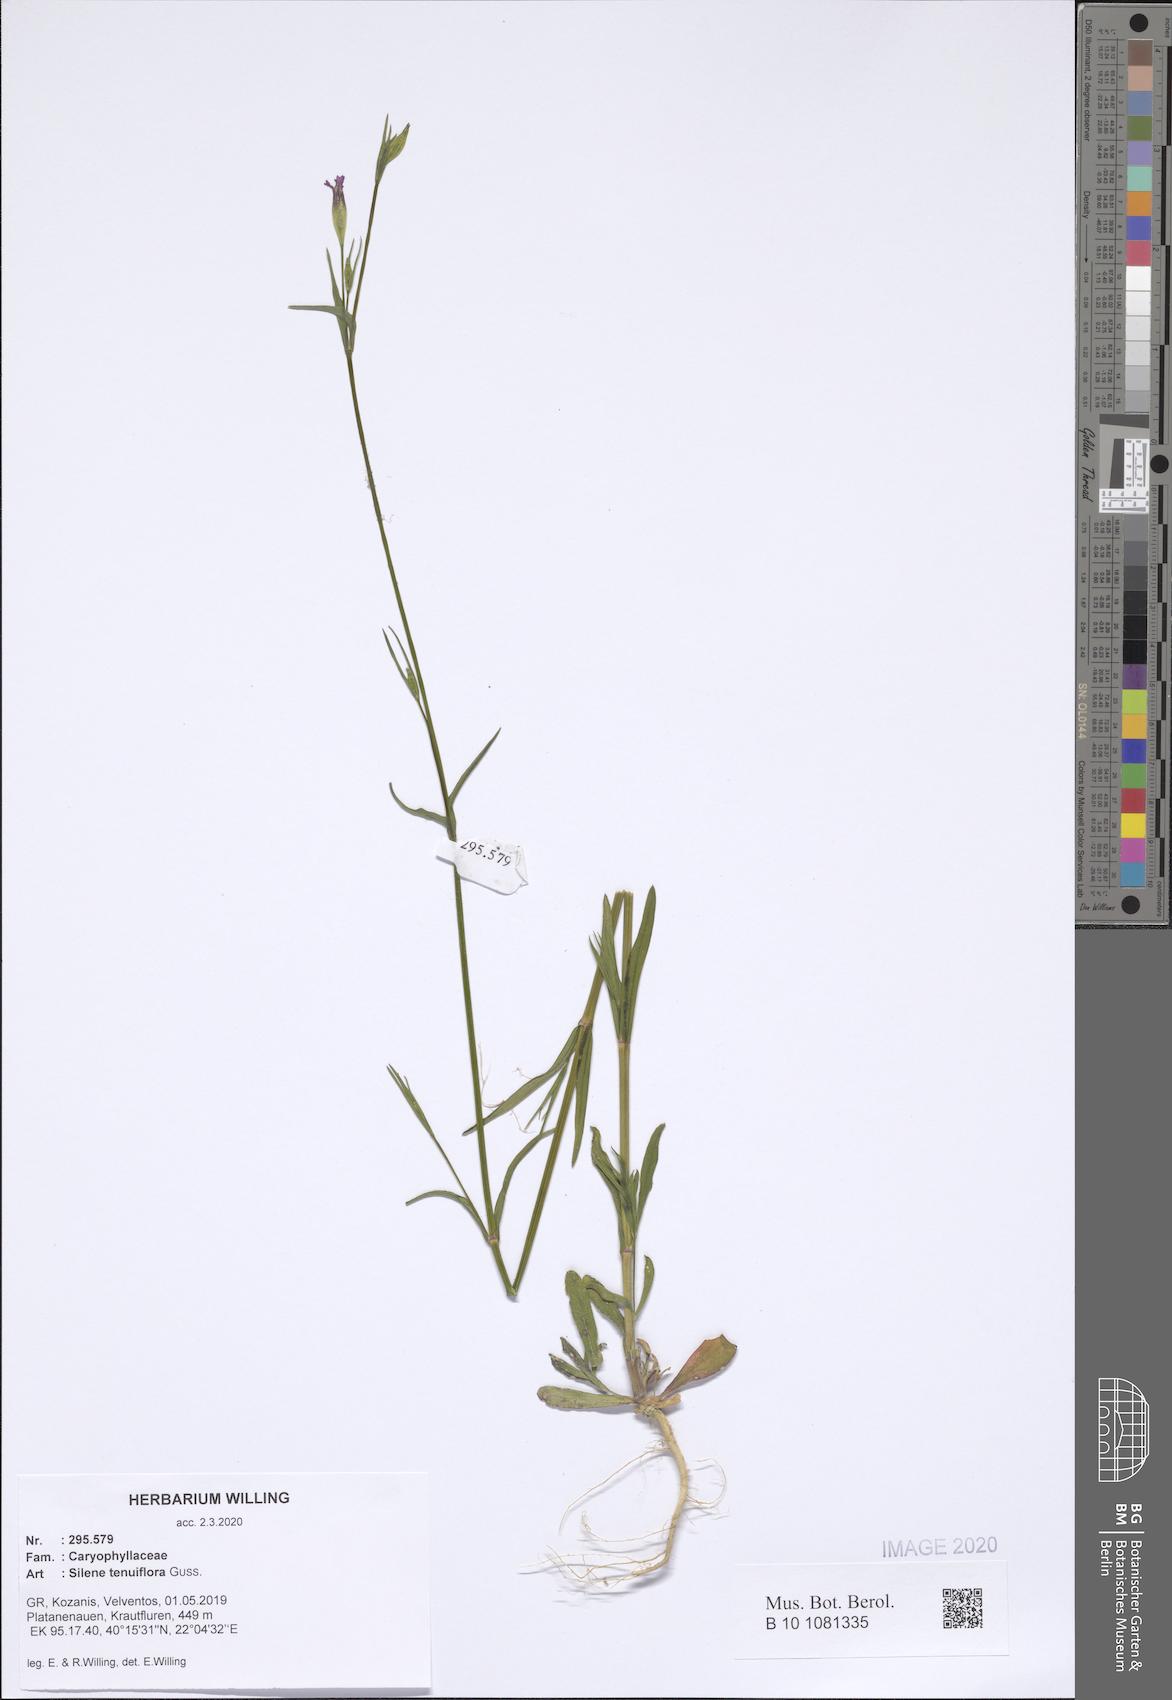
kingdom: Plantae
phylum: Tracheophyta
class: Magnoliopsida
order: Caryophyllales
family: Caryophyllaceae
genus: Silene
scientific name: Silene tenuiflora
